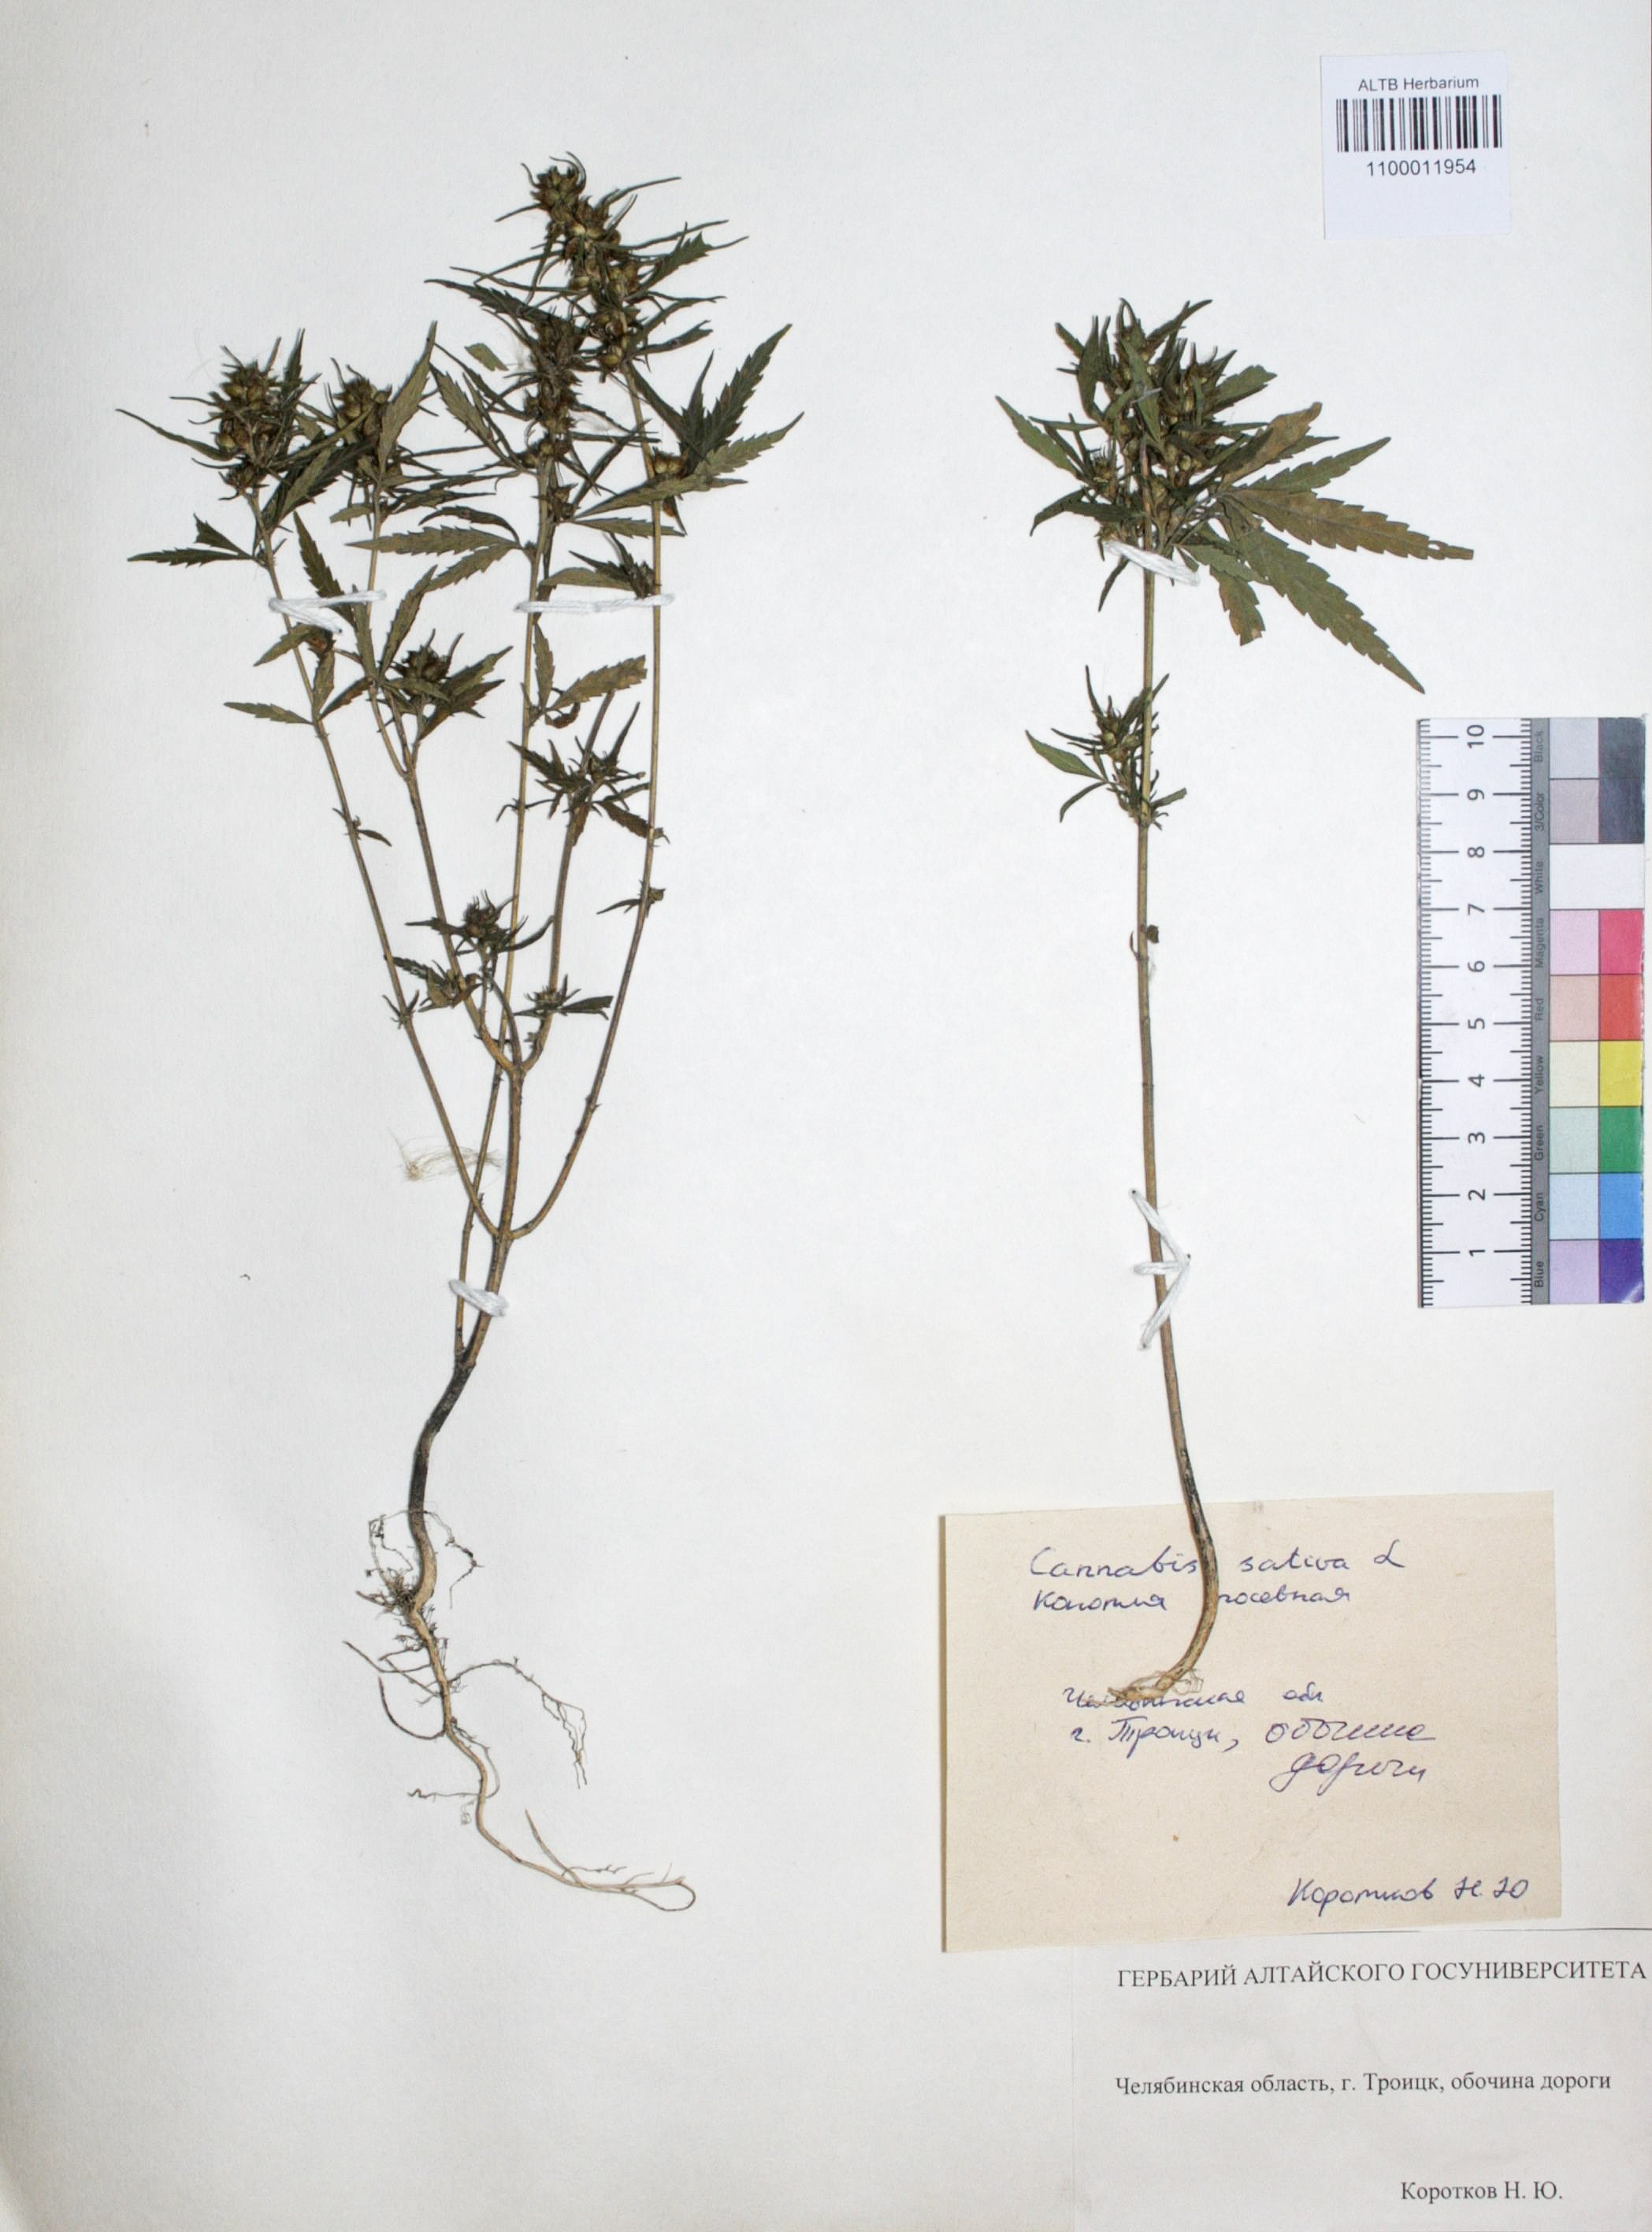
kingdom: Plantae
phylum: Tracheophyta
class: Magnoliopsida
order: Rosales
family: Cannabaceae
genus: Cannabis
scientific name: Cannabis sativa
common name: Hemp
